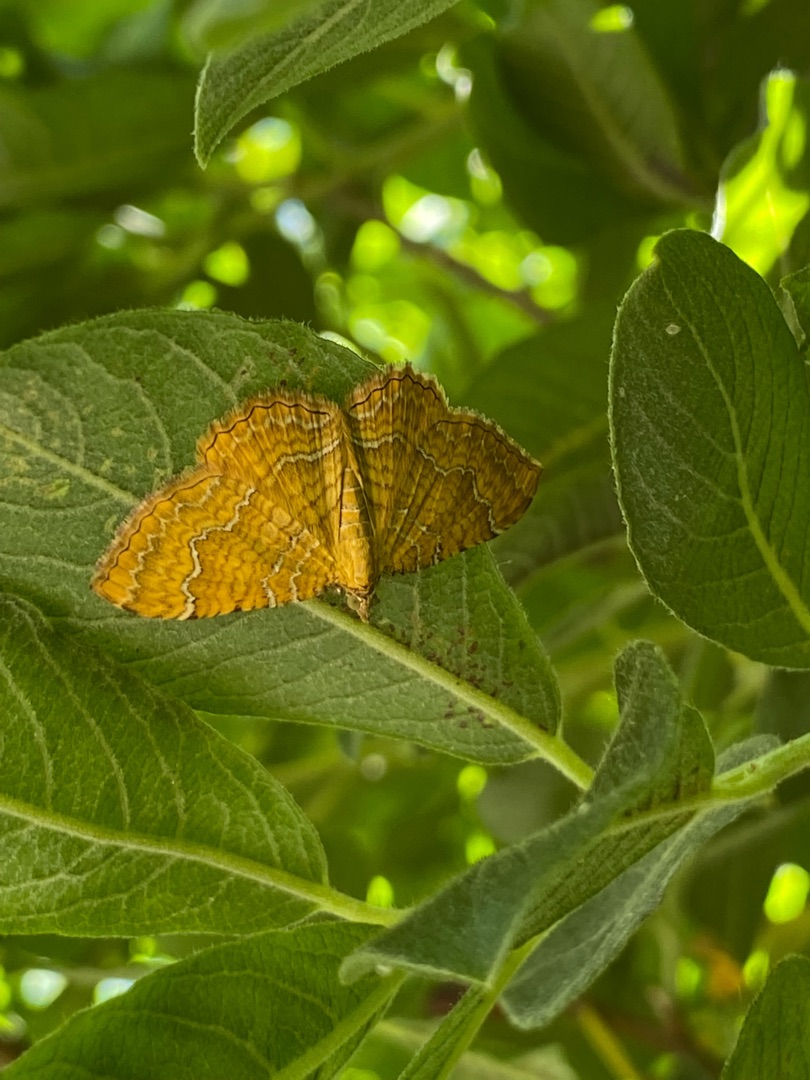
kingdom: Animalia
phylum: Arthropoda
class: Insecta
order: Lepidoptera
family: Geometridae
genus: Camptogramma
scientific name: Camptogramma bilineata
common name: Okkergul bladmåler
